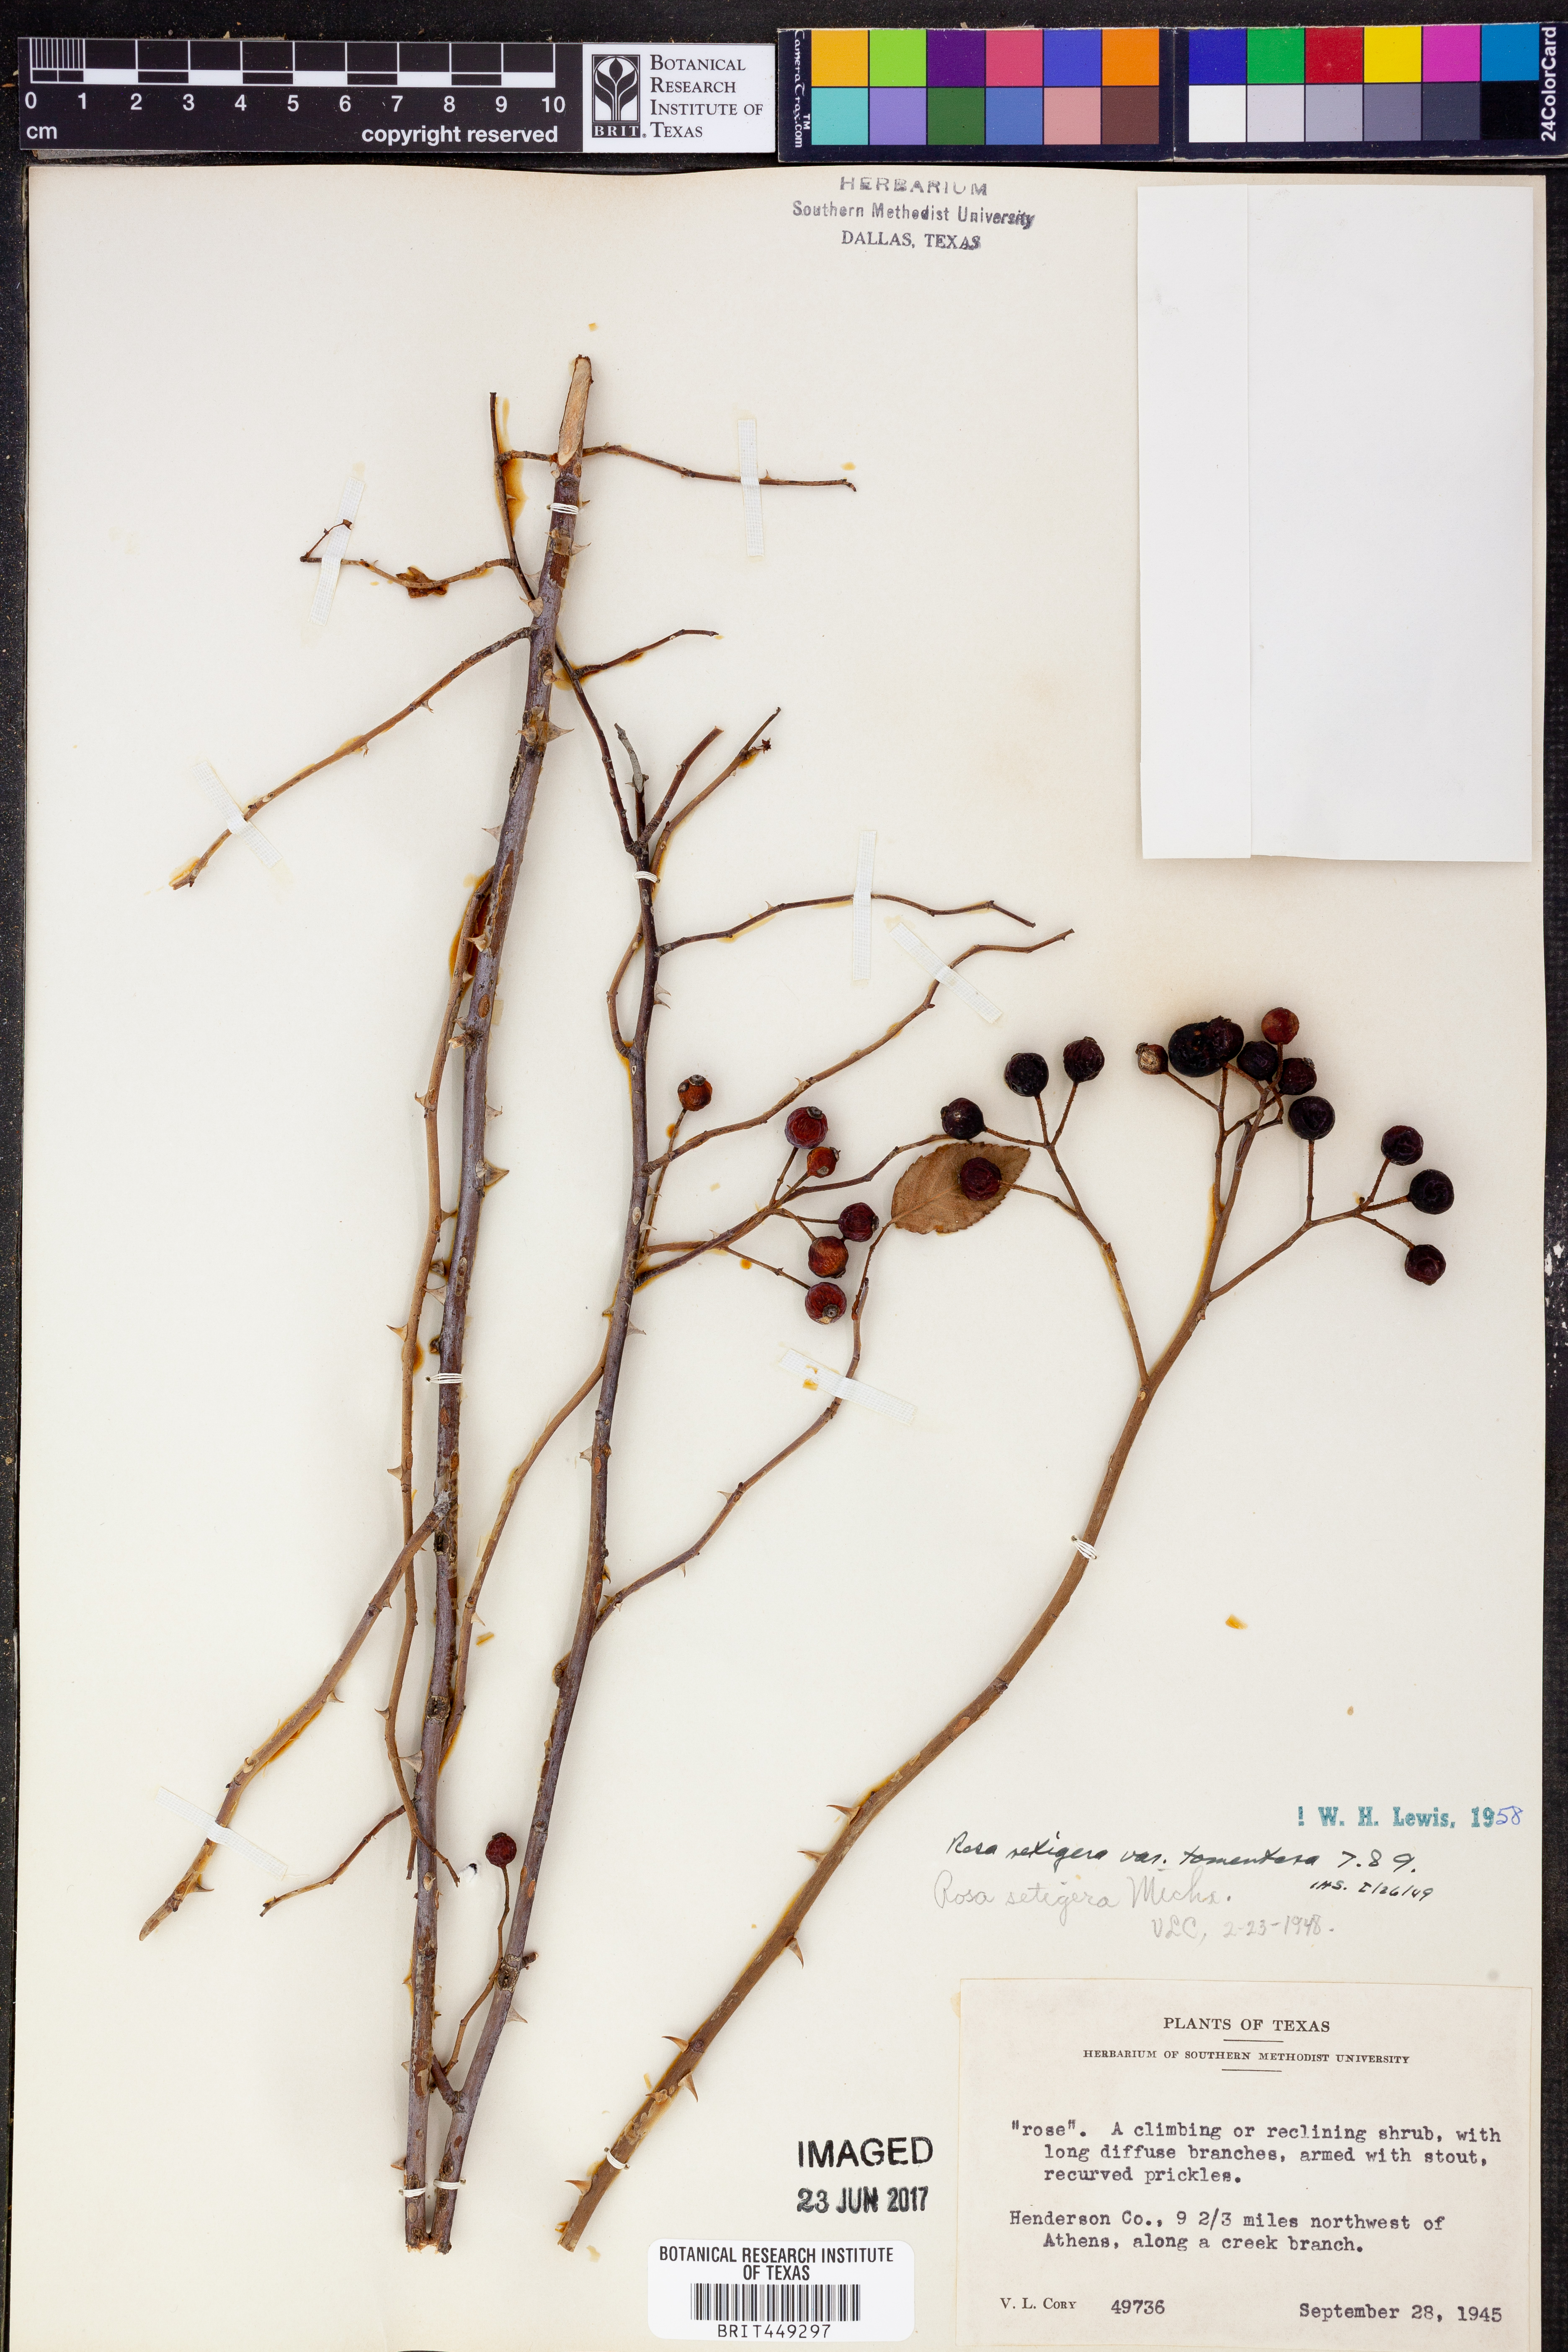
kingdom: Plantae
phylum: Tracheophyta
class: Magnoliopsida
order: Rosales
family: Rosaceae
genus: Rosa
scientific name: Rosa setigera
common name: Prairie rose
